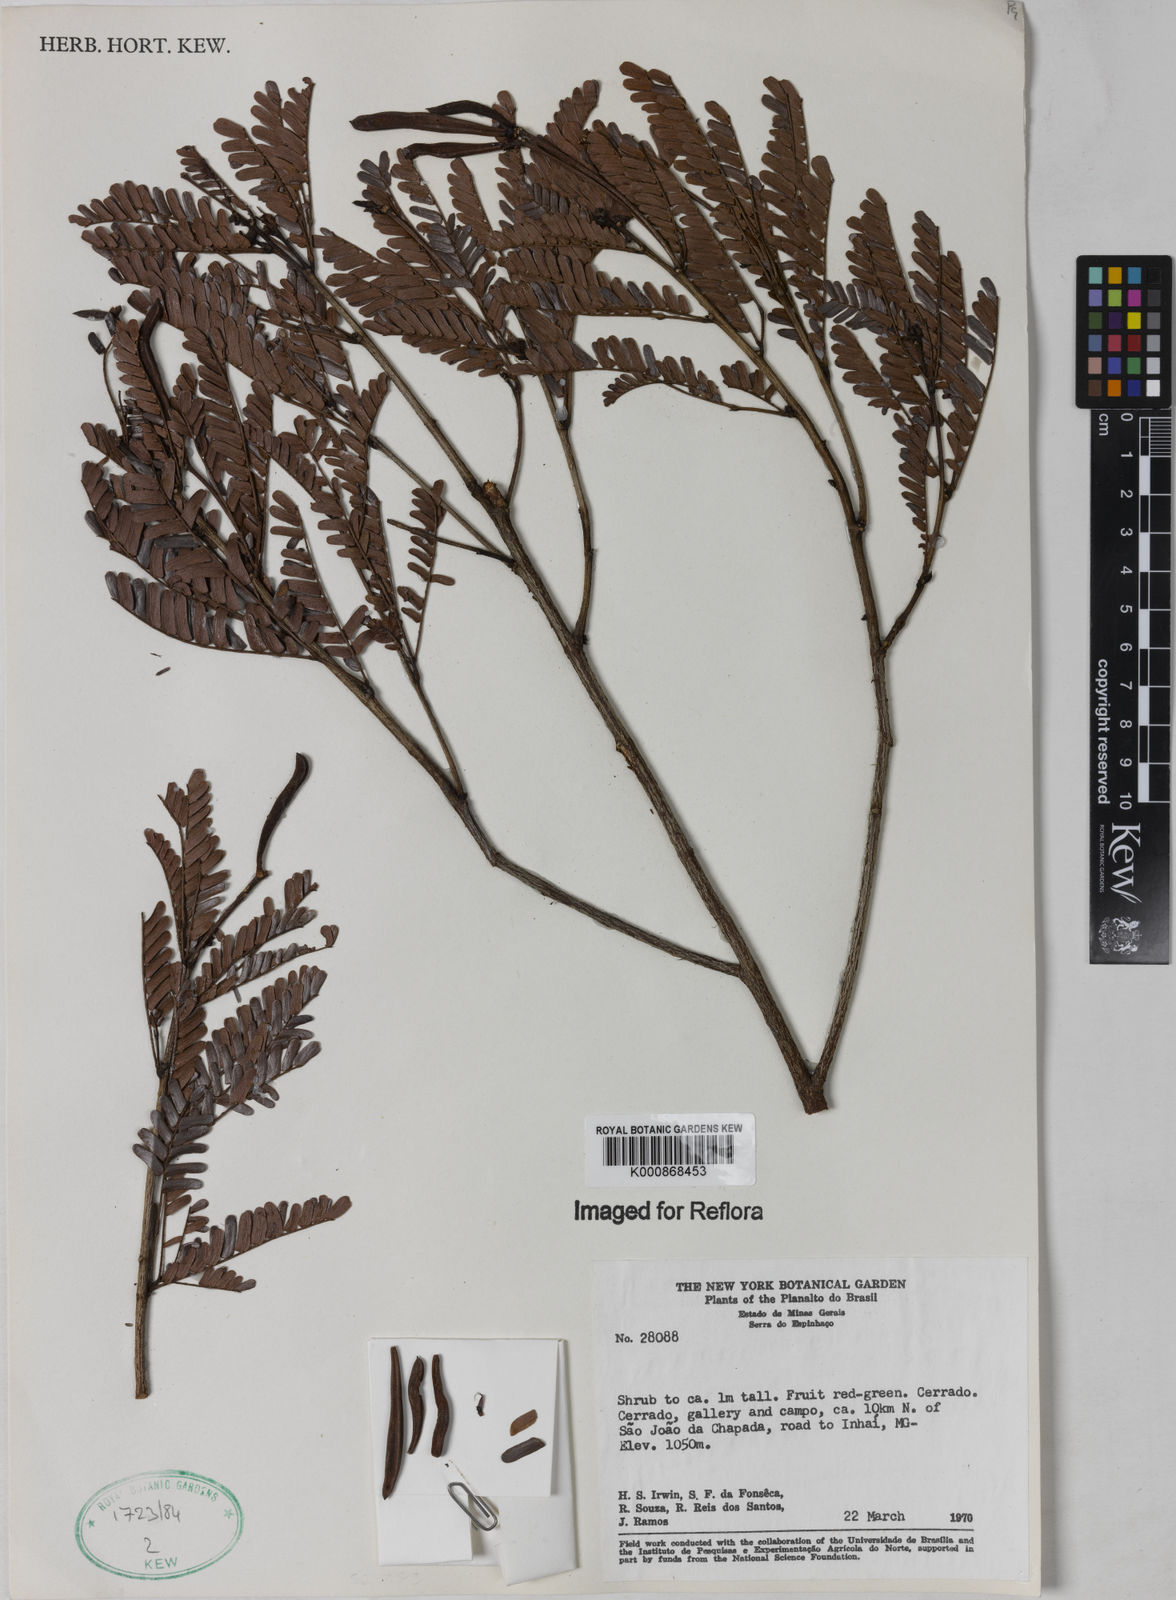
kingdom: Plantae
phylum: Tracheophyta
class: Magnoliopsida
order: Fabales
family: Fabaceae
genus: Calliandra
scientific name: Calliandra
